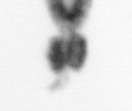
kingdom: Animalia
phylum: Arthropoda
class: Copepoda
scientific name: Copepoda
